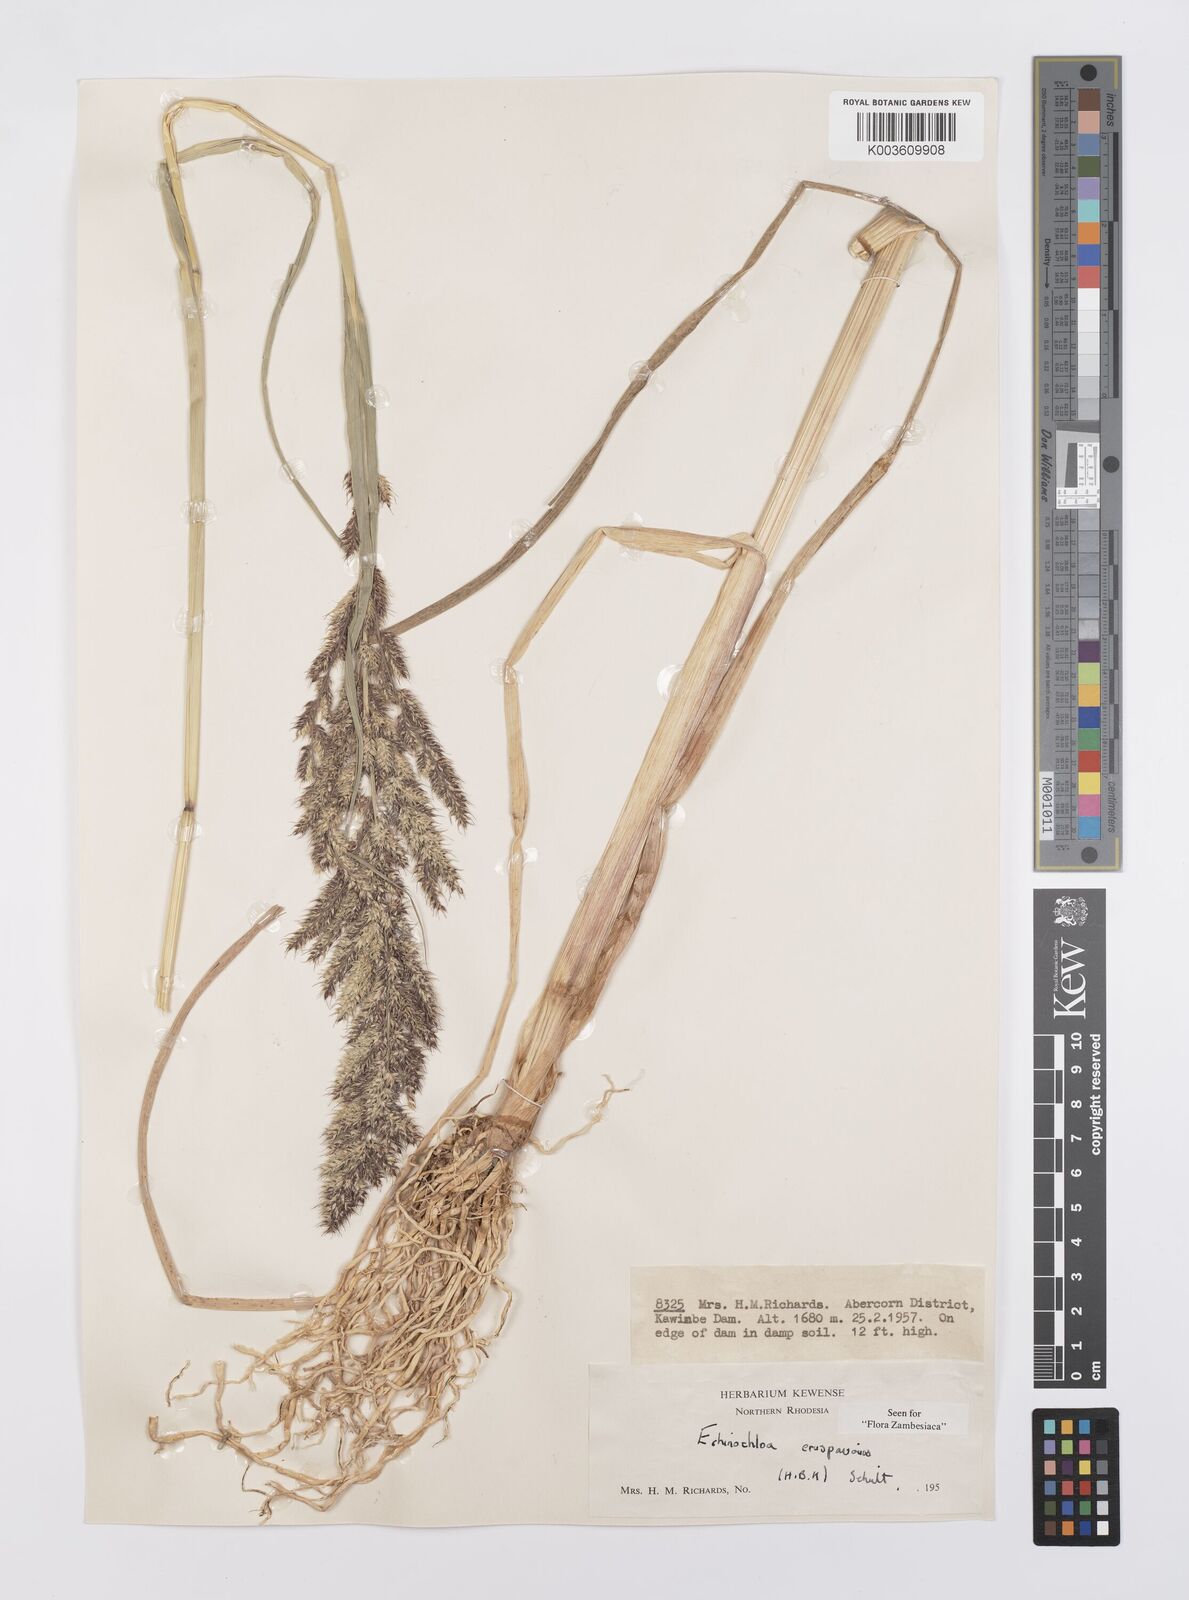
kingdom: Plantae
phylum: Tracheophyta
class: Liliopsida
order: Poales
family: Poaceae
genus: Echinochloa
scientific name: Echinochloa crus-pavonis
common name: Gulf cockspur grass
